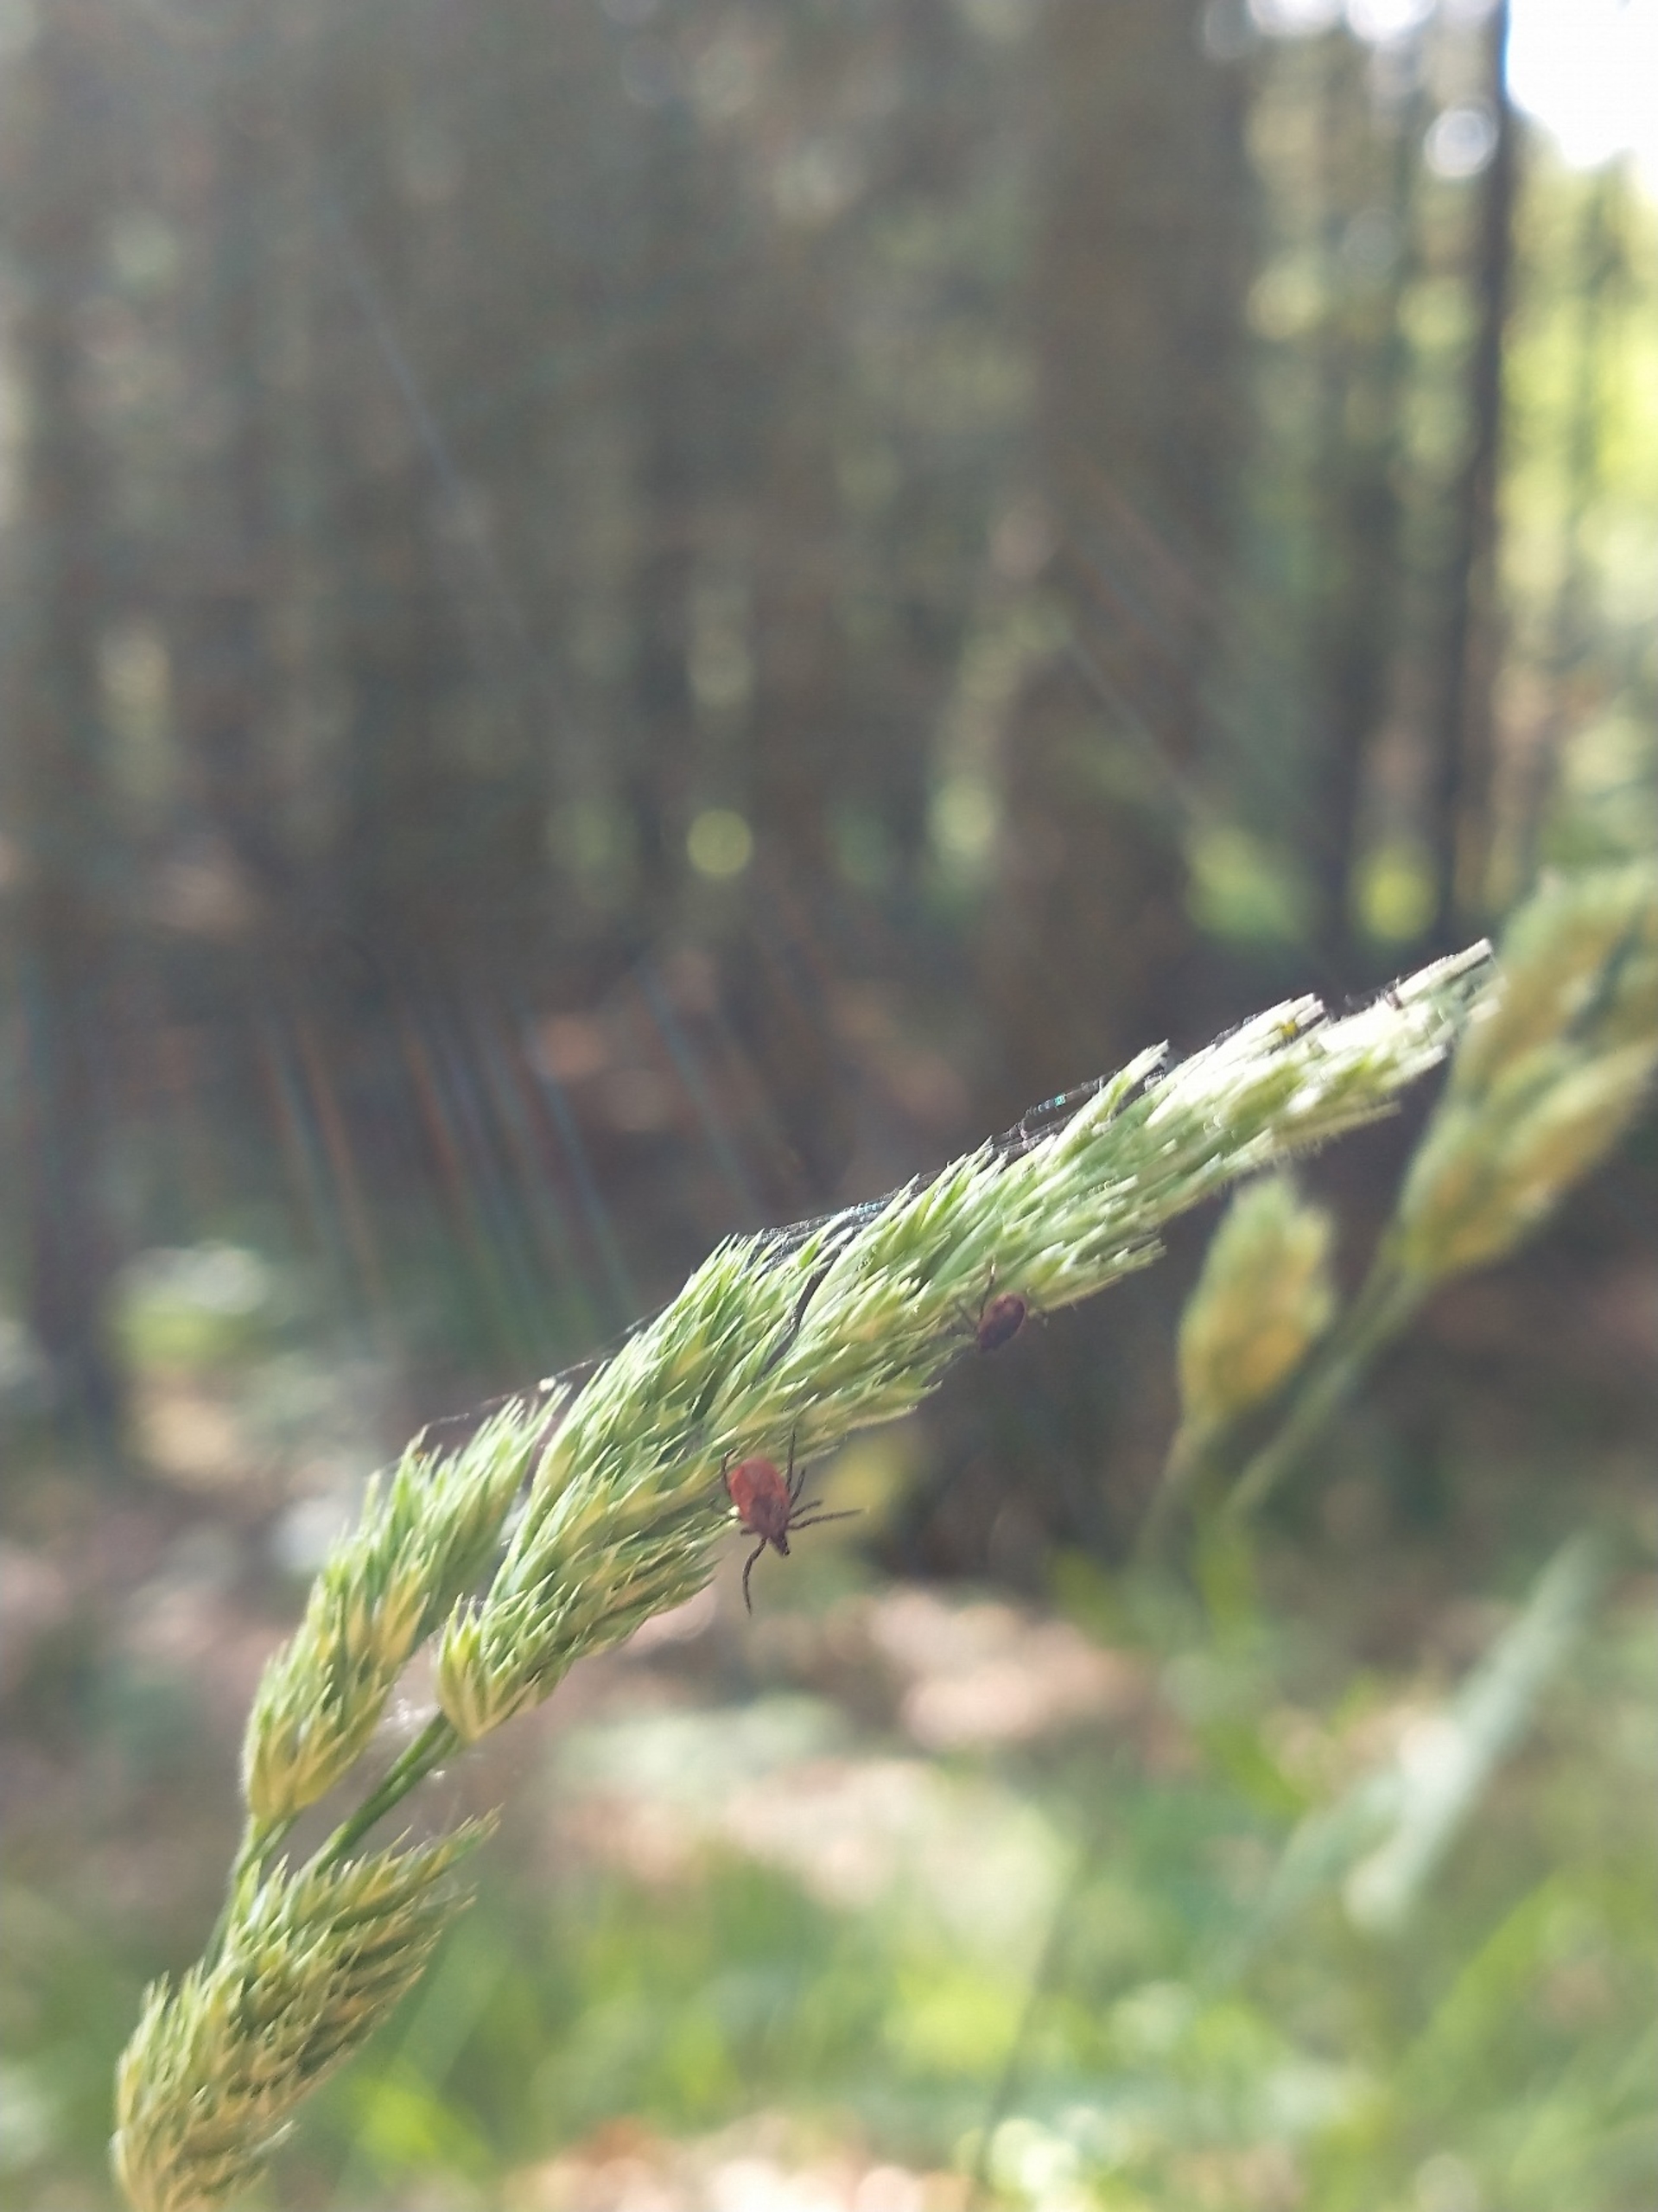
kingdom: Animalia
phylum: Arthropoda
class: Arachnida
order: Ixodida
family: Ixodidae
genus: Ixodes
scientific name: Ixodes ricinus
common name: Skovflåt
